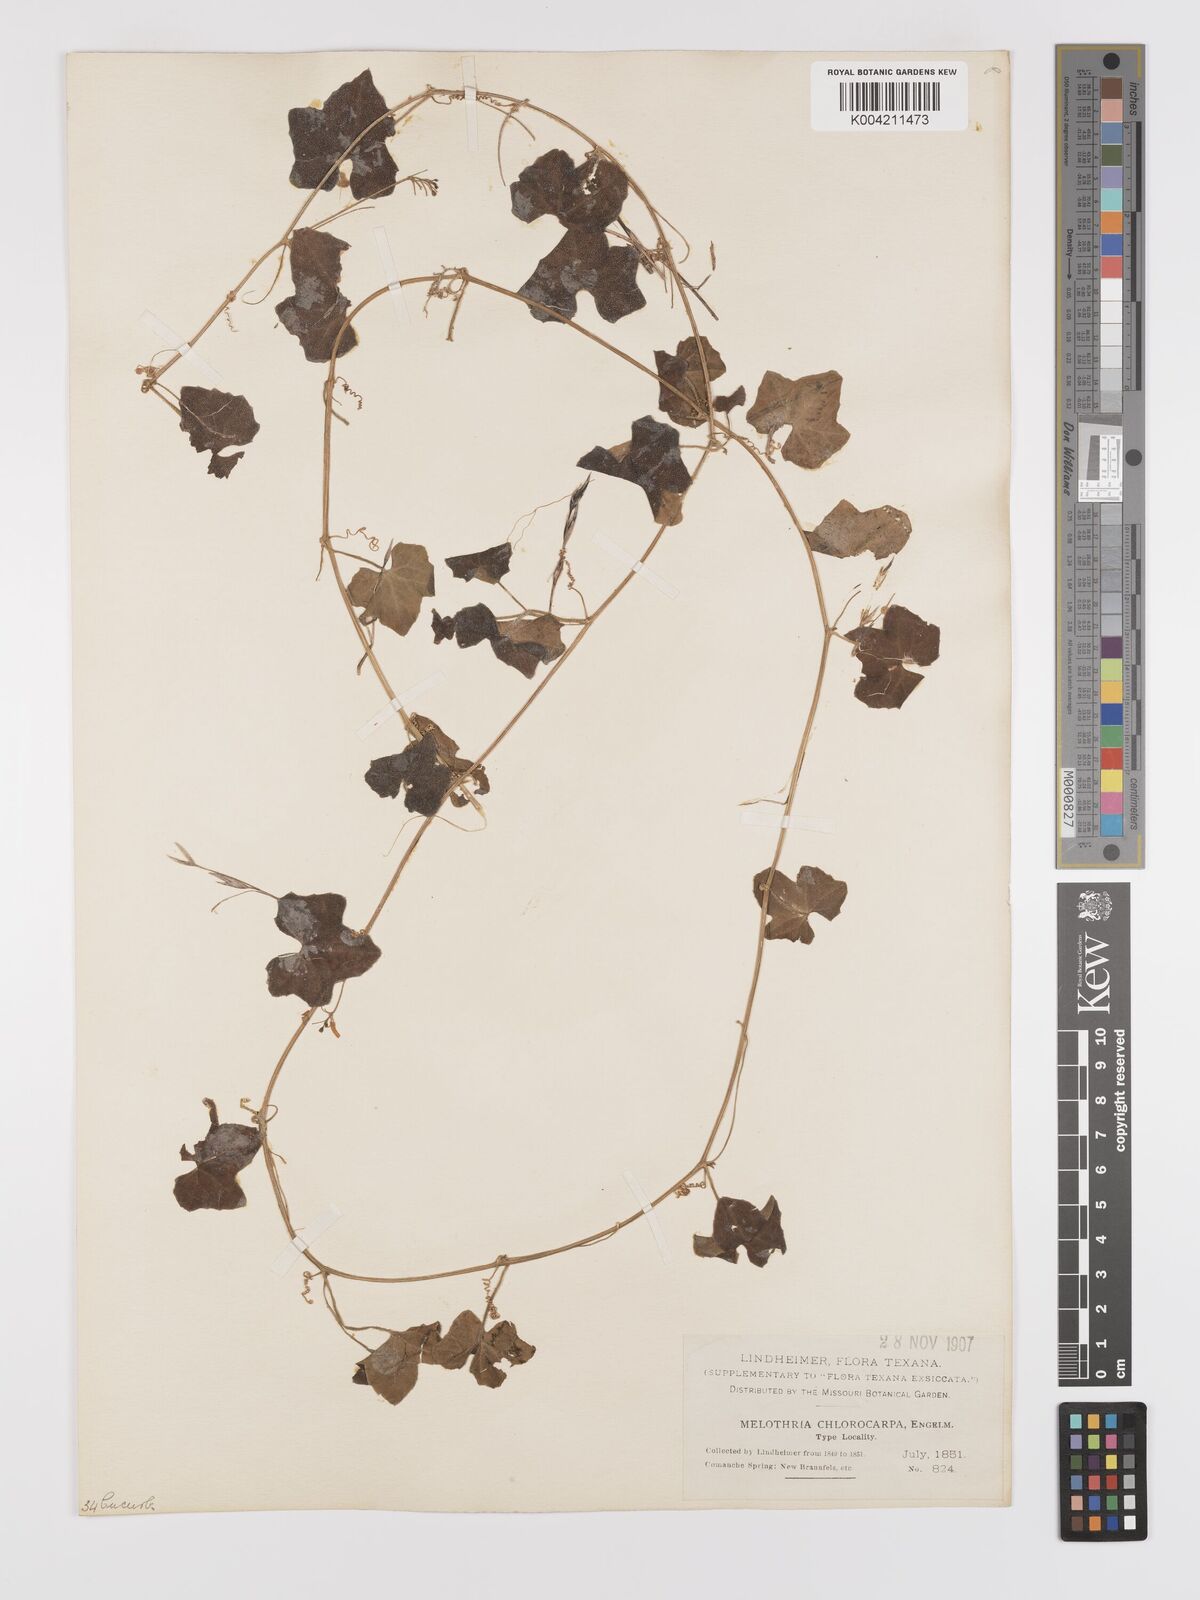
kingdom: Plantae
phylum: Tracheophyta
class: Magnoliopsida
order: Cucurbitales
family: Cucurbitaceae
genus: Melothria
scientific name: Melothria pendula
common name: Creeping-cucumber
